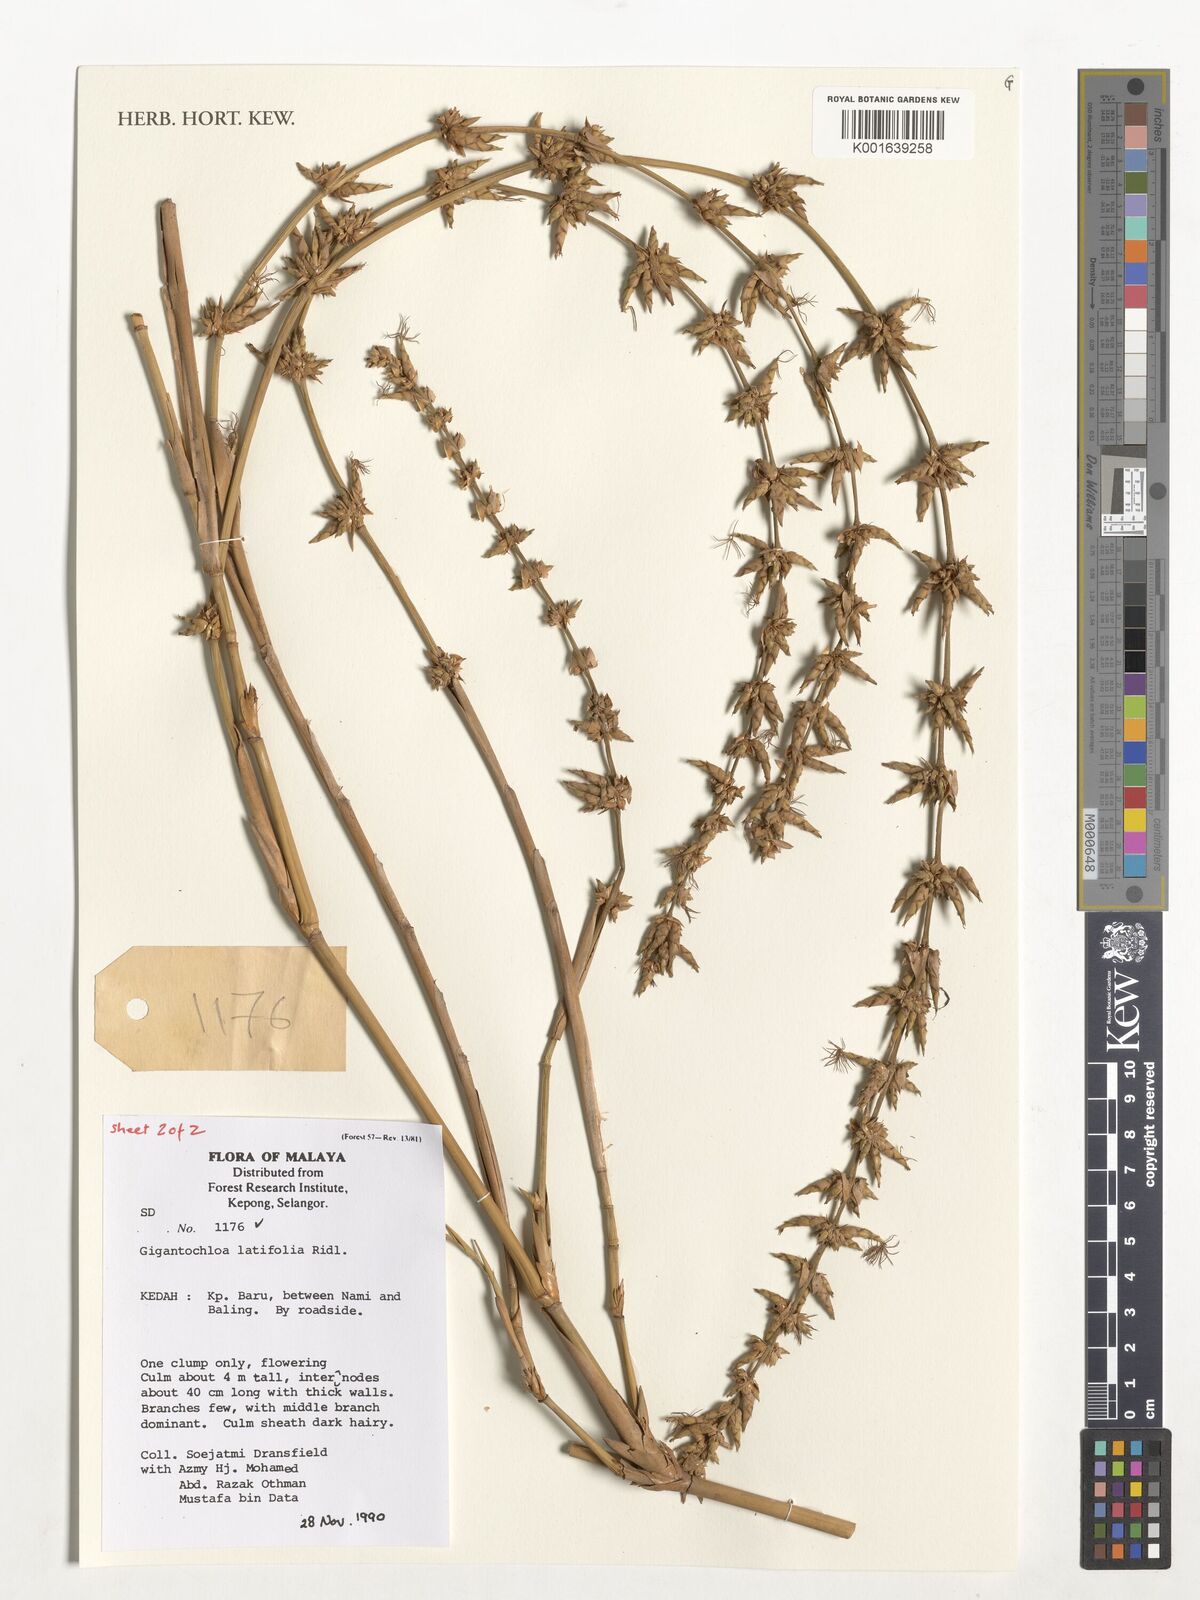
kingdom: Plantae
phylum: Tracheophyta
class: Liliopsida
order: Poales
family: Poaceae
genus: Gigantochloa
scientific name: Gigantochloa latifolia
